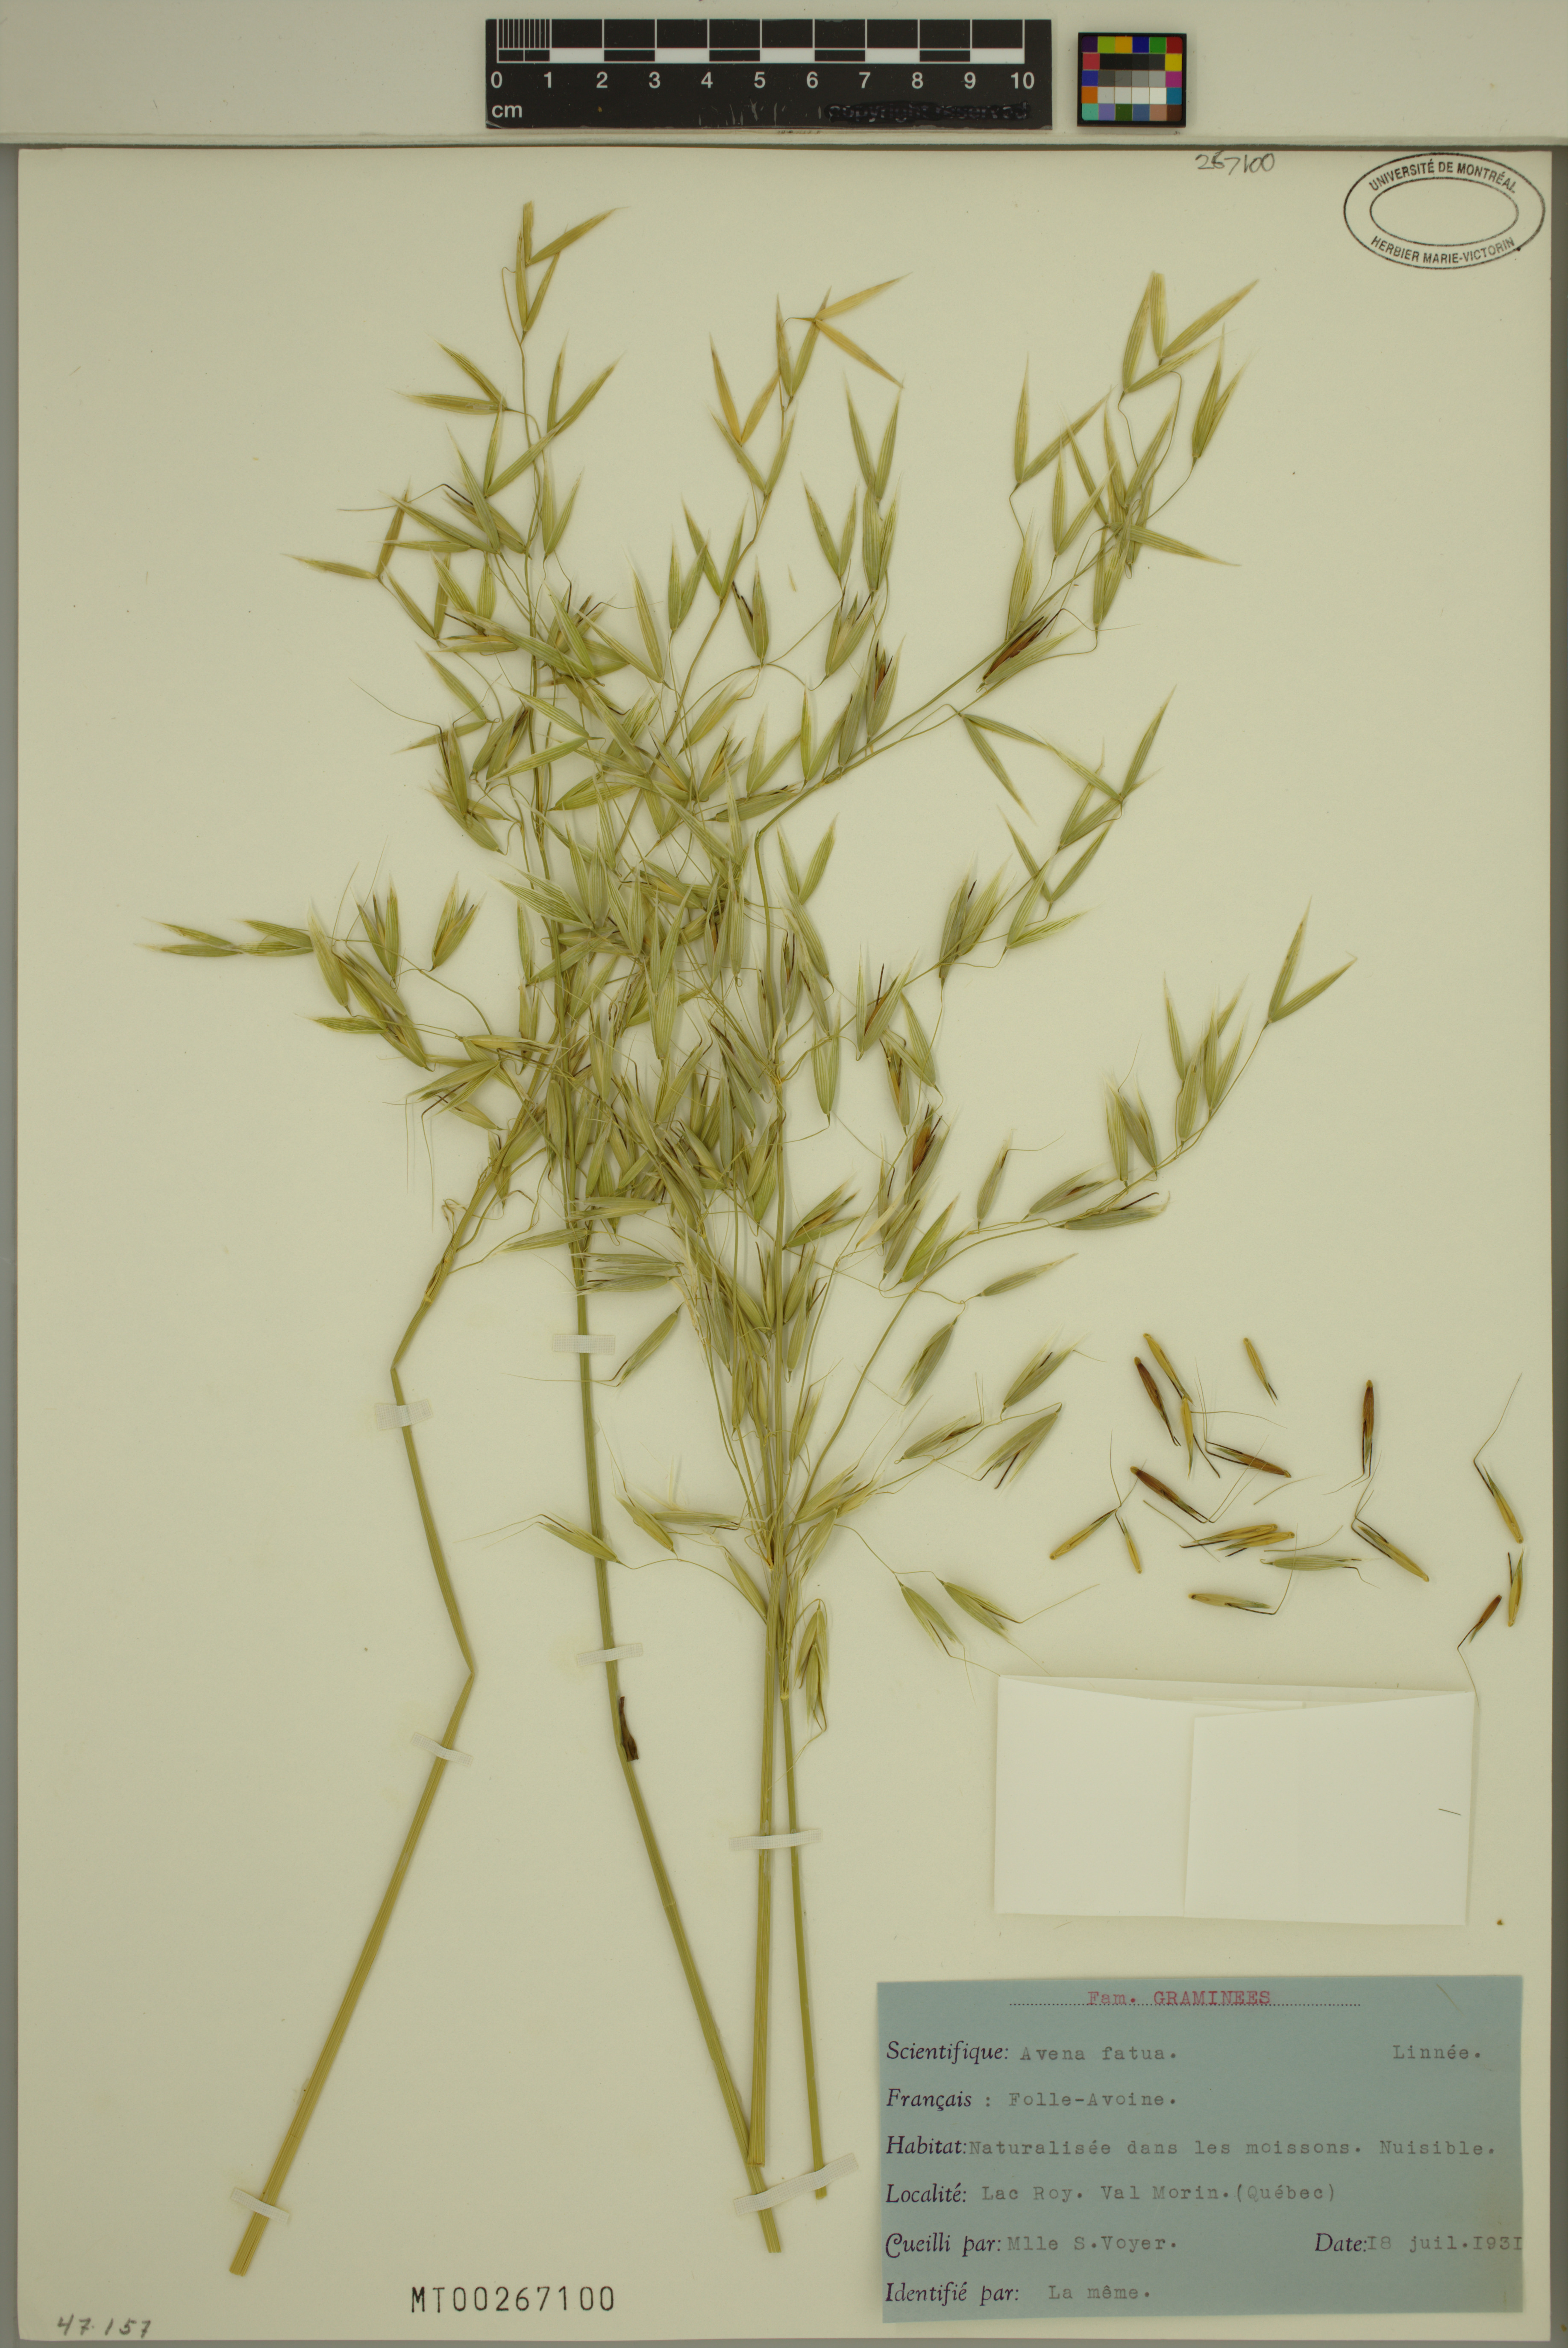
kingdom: Plantae
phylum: Tracheophyta
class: Liliopsida
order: Poales
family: Poaceae
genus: Avena
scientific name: Avena fatua
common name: Wild oat
